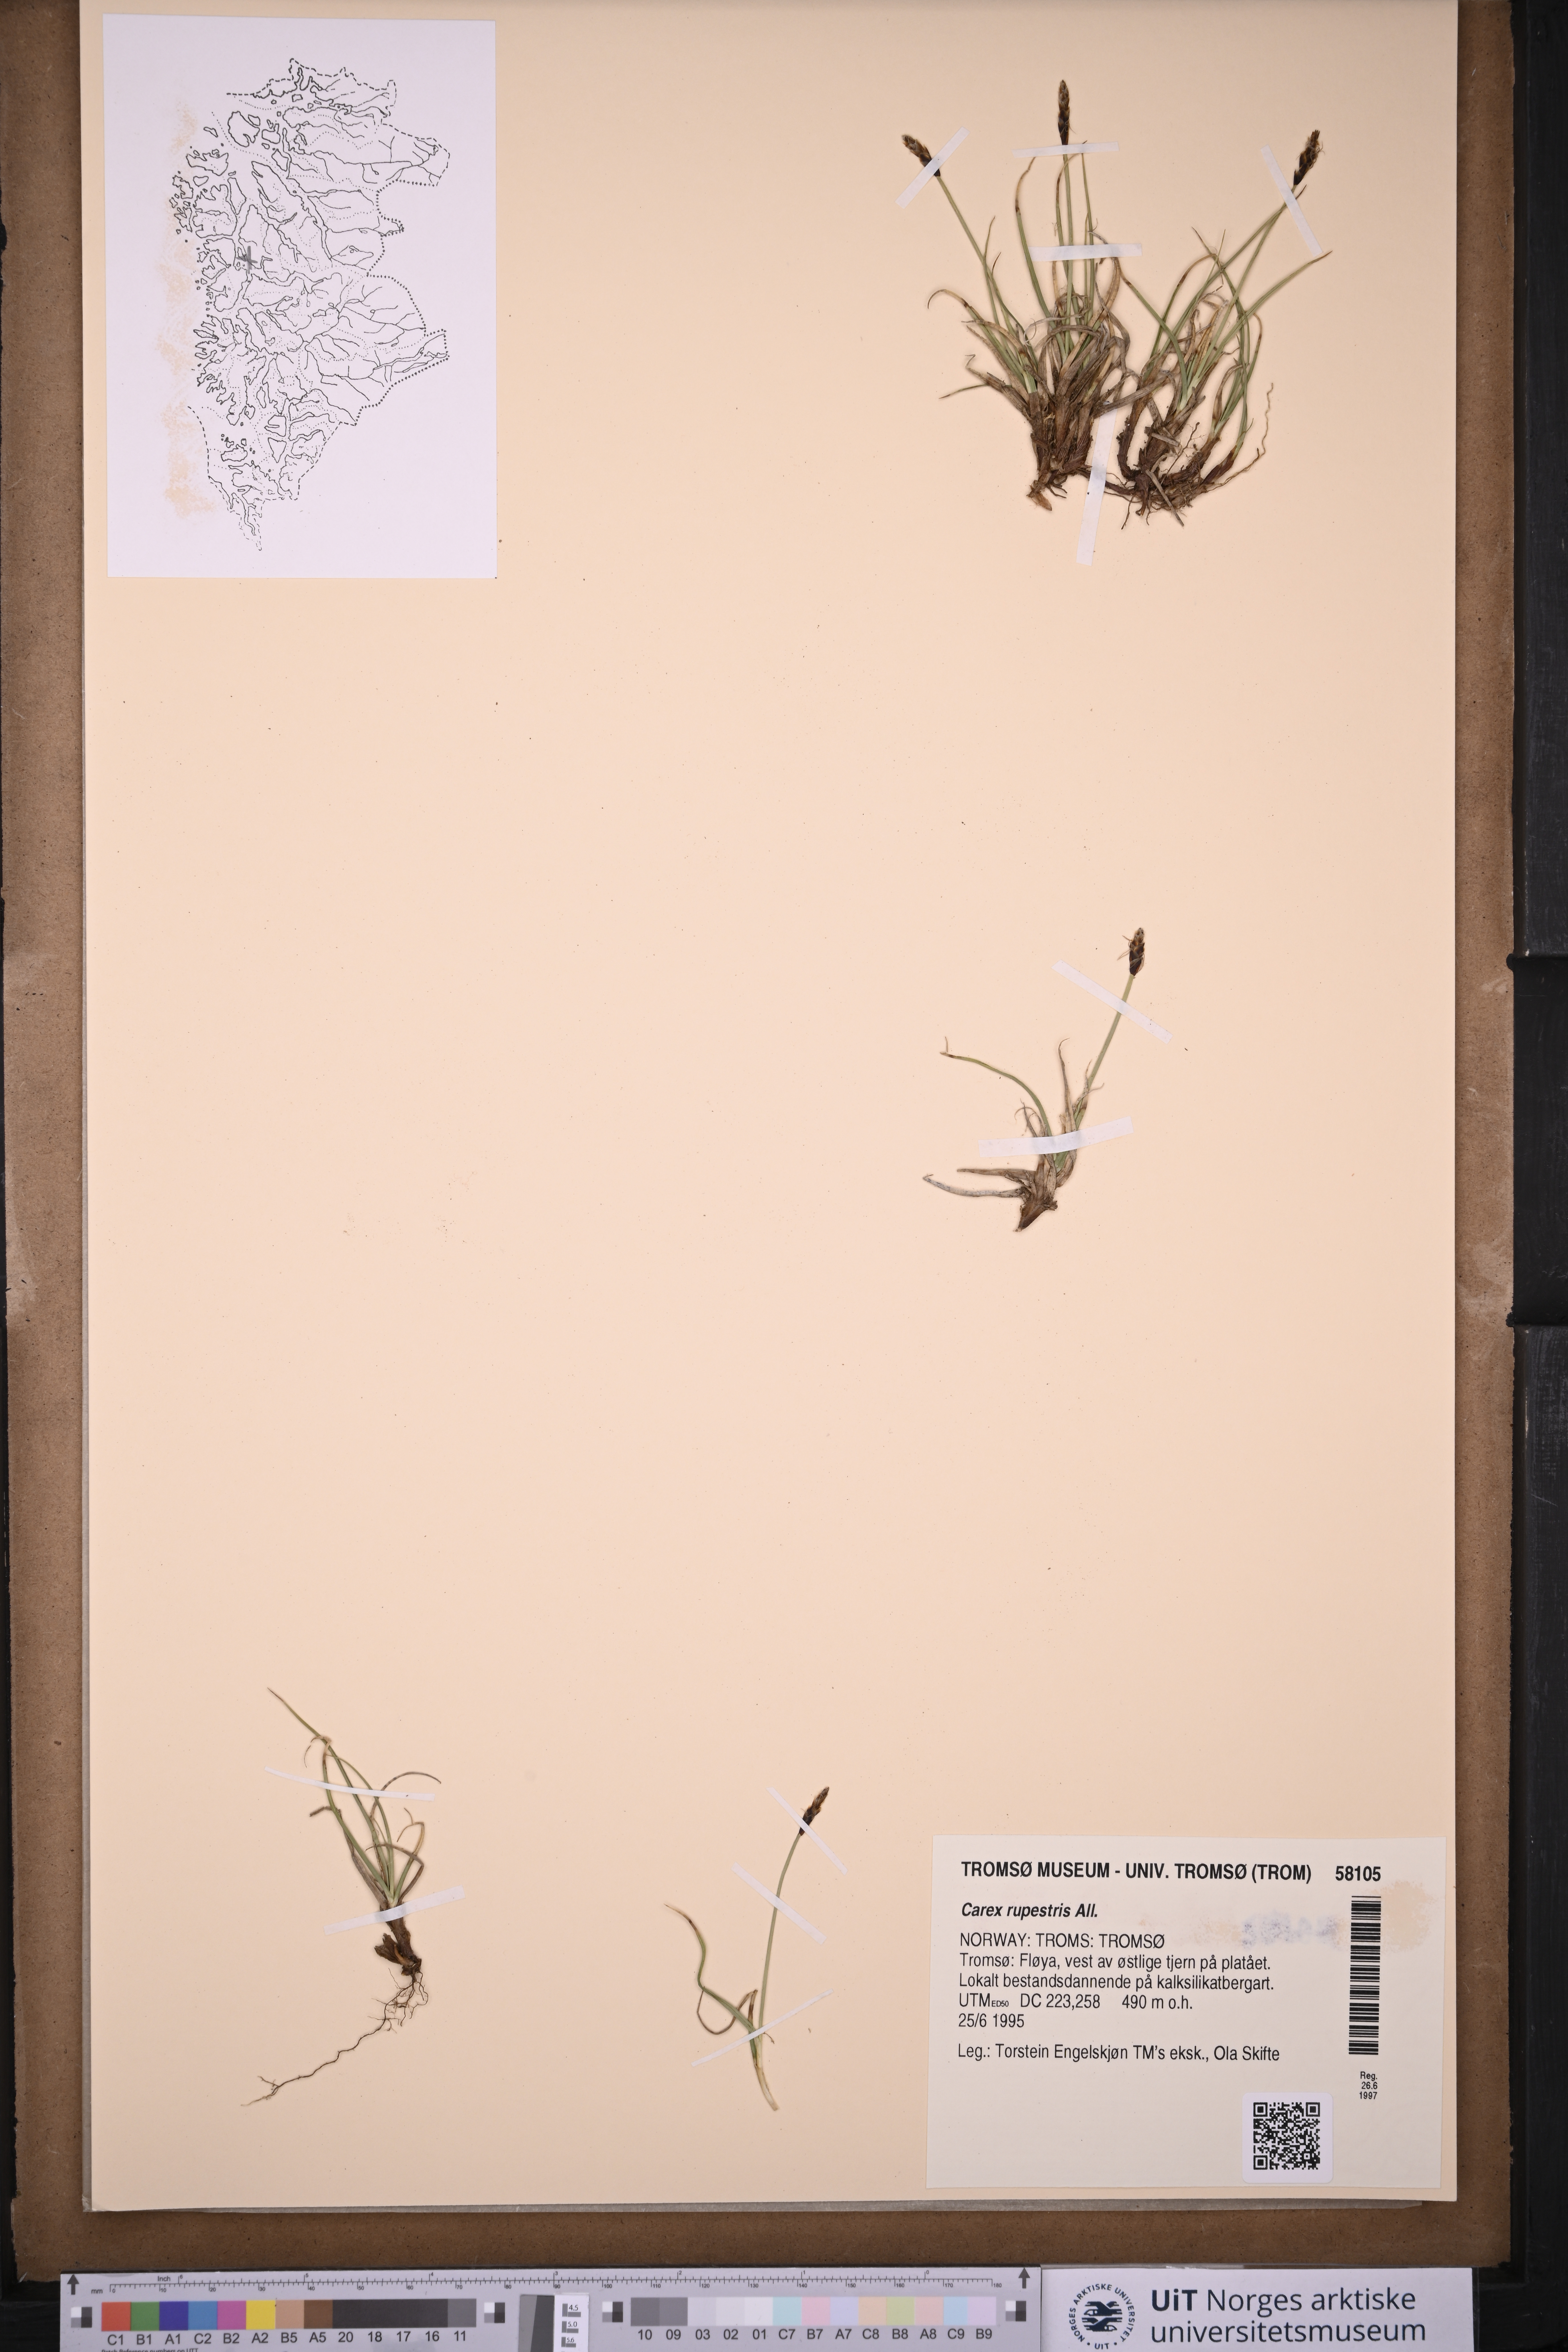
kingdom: Plantae
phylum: Tracheophyta
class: Liliopsida
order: Poales
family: Cyperaceae
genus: Carex
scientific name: Carex rupestris
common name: Rock sedge
